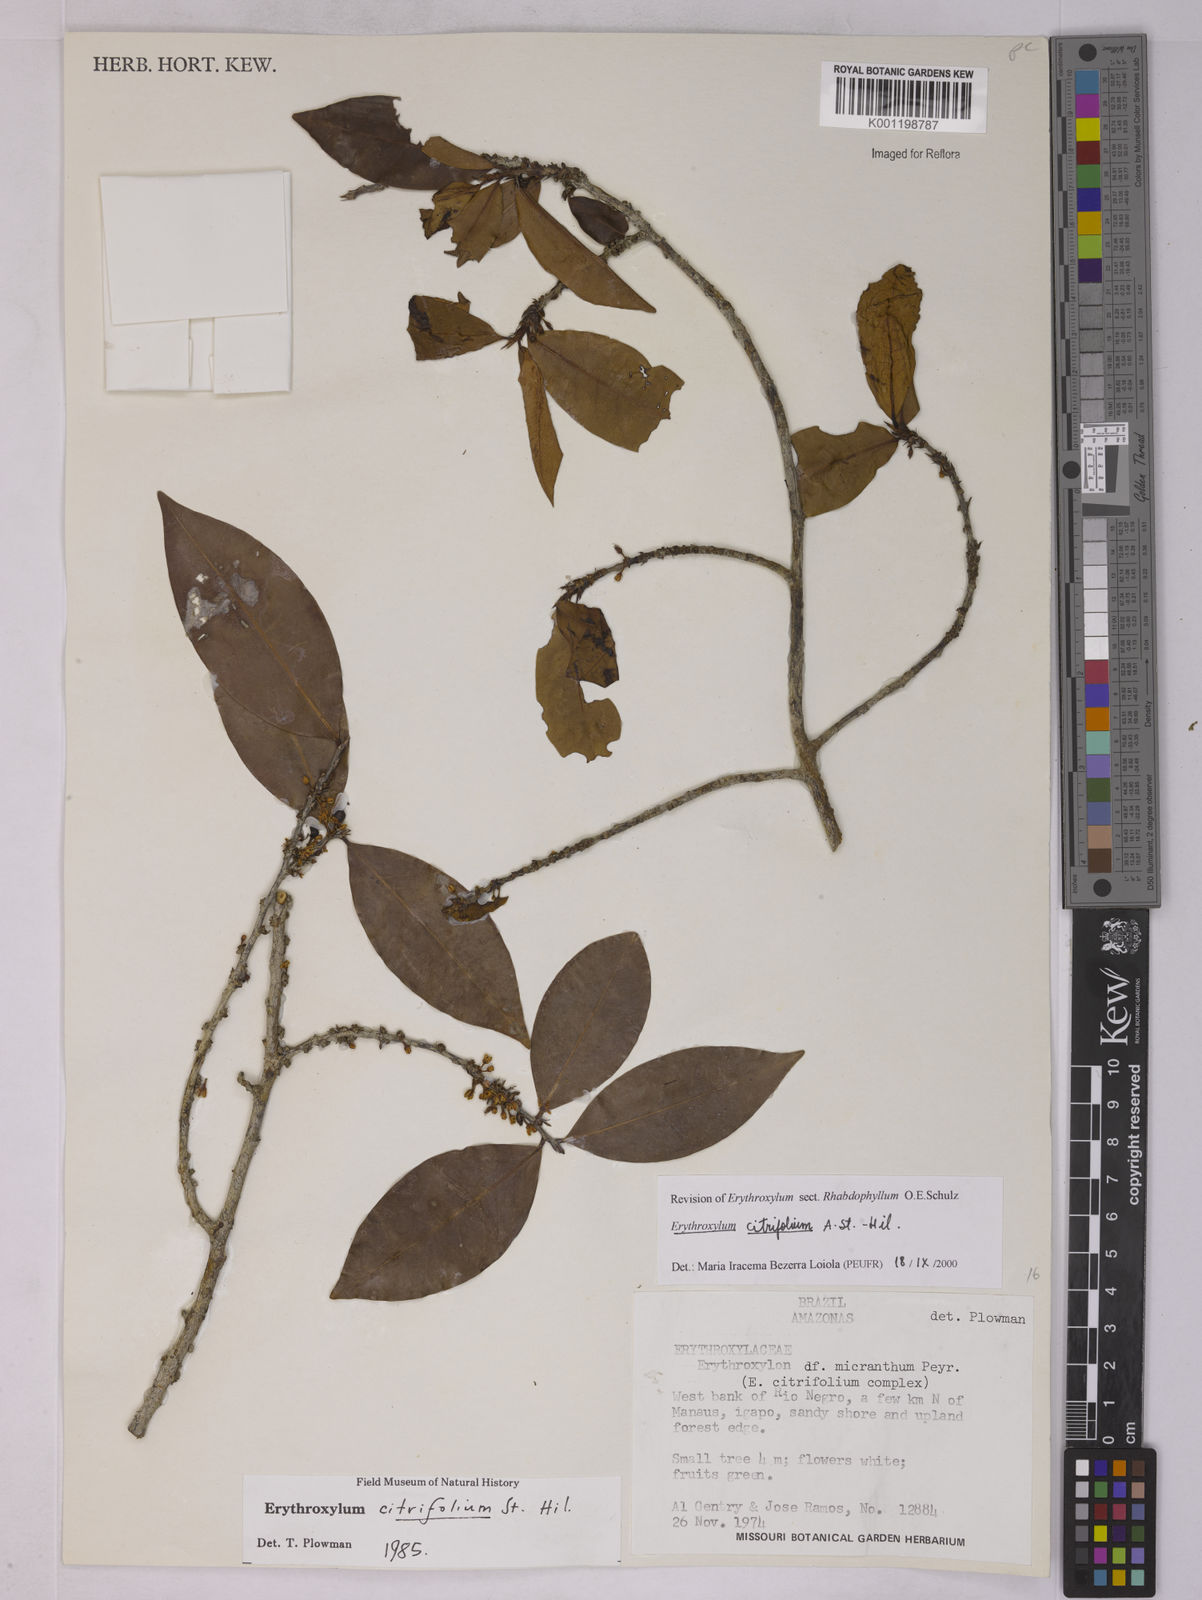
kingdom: Plantae
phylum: Tracheophyta
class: Magnoliopsida
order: Malpighiales
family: Erythroxylaceae
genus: Erythroxylum
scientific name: Erythroxylum citrifolium
